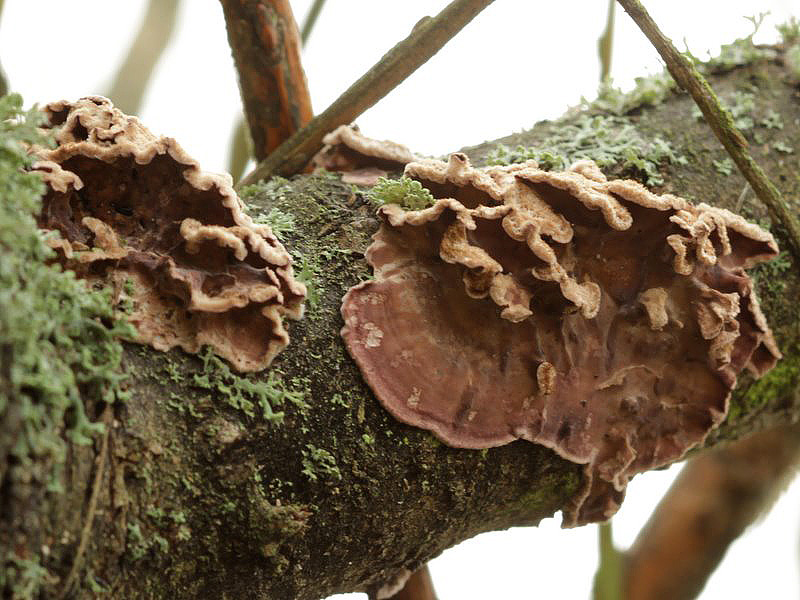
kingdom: Fungi
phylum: Basidiomycota
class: Agaricomycetes
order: Agaricales
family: Cyphellaceae
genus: Chondrostereum
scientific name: Chondrostereum purpureum
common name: purpurlædersvamp
